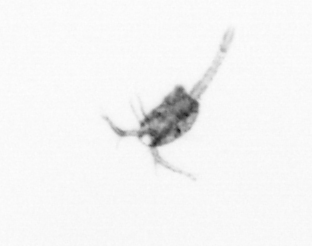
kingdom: Animalia
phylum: Arthropoda
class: Copepoda
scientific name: Copepoda
